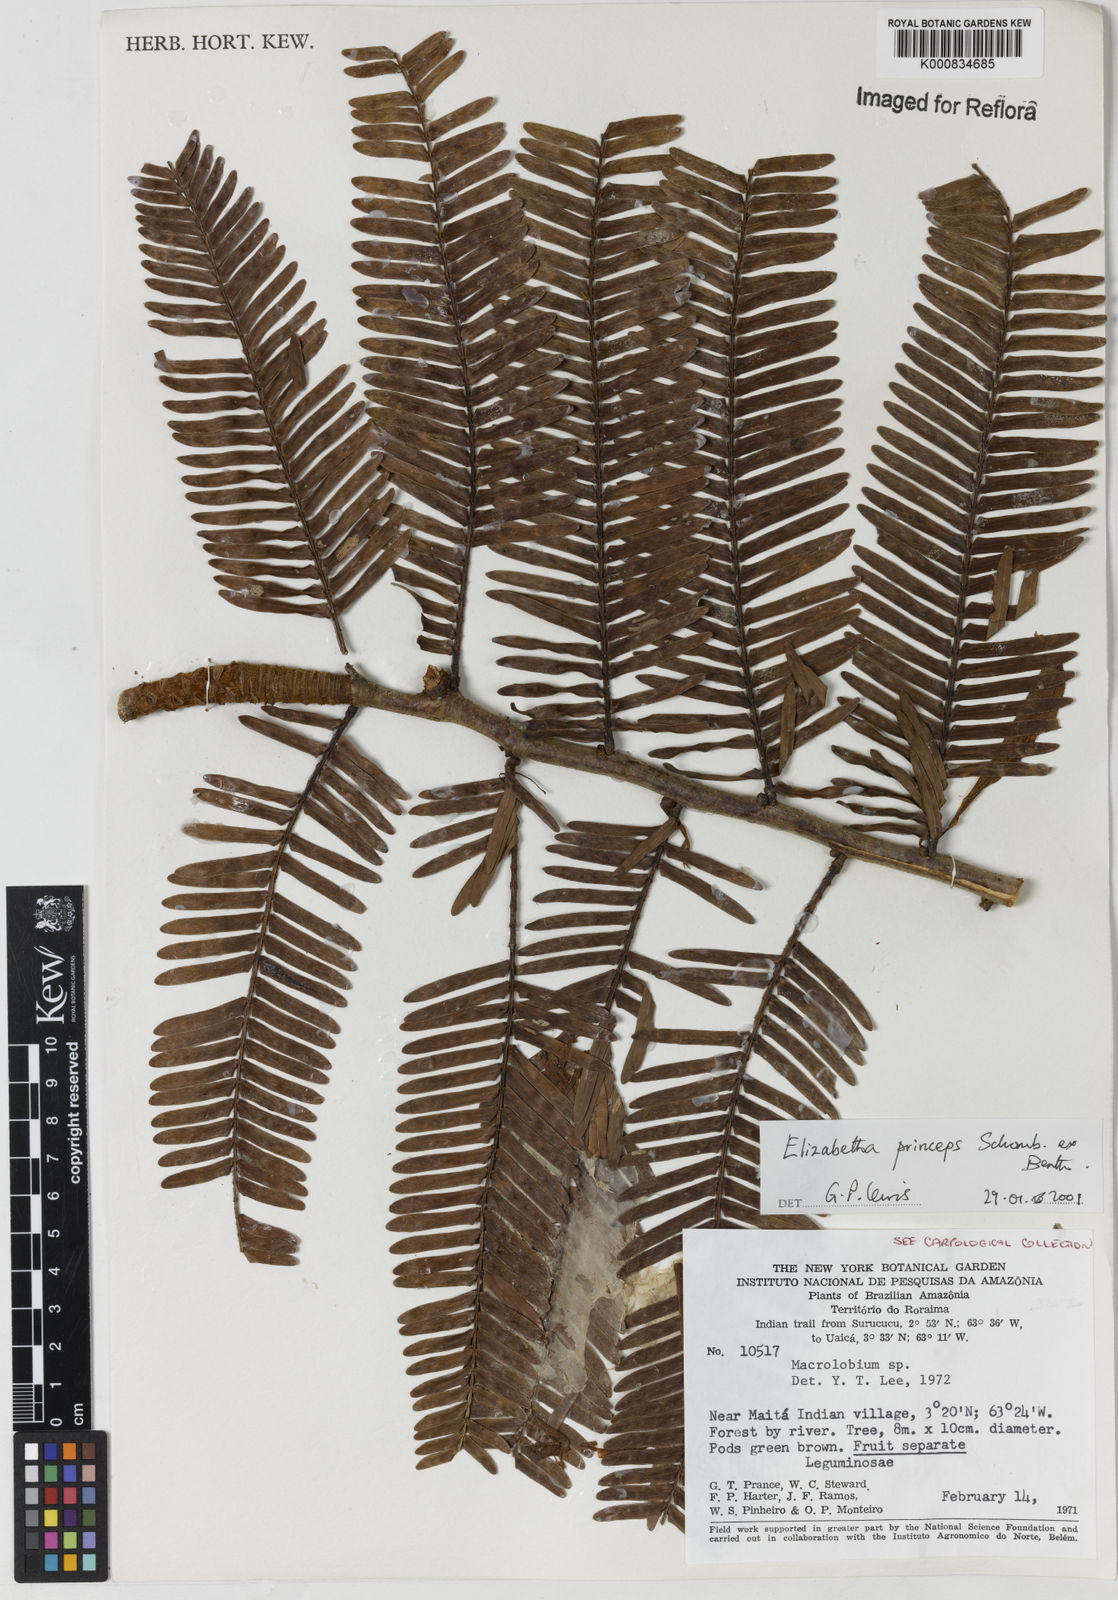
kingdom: Plantae
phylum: Tracheophyta
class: Magnoliopsida
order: Fabales
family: Fabaceae
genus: Paloue
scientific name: Paloue princeps
